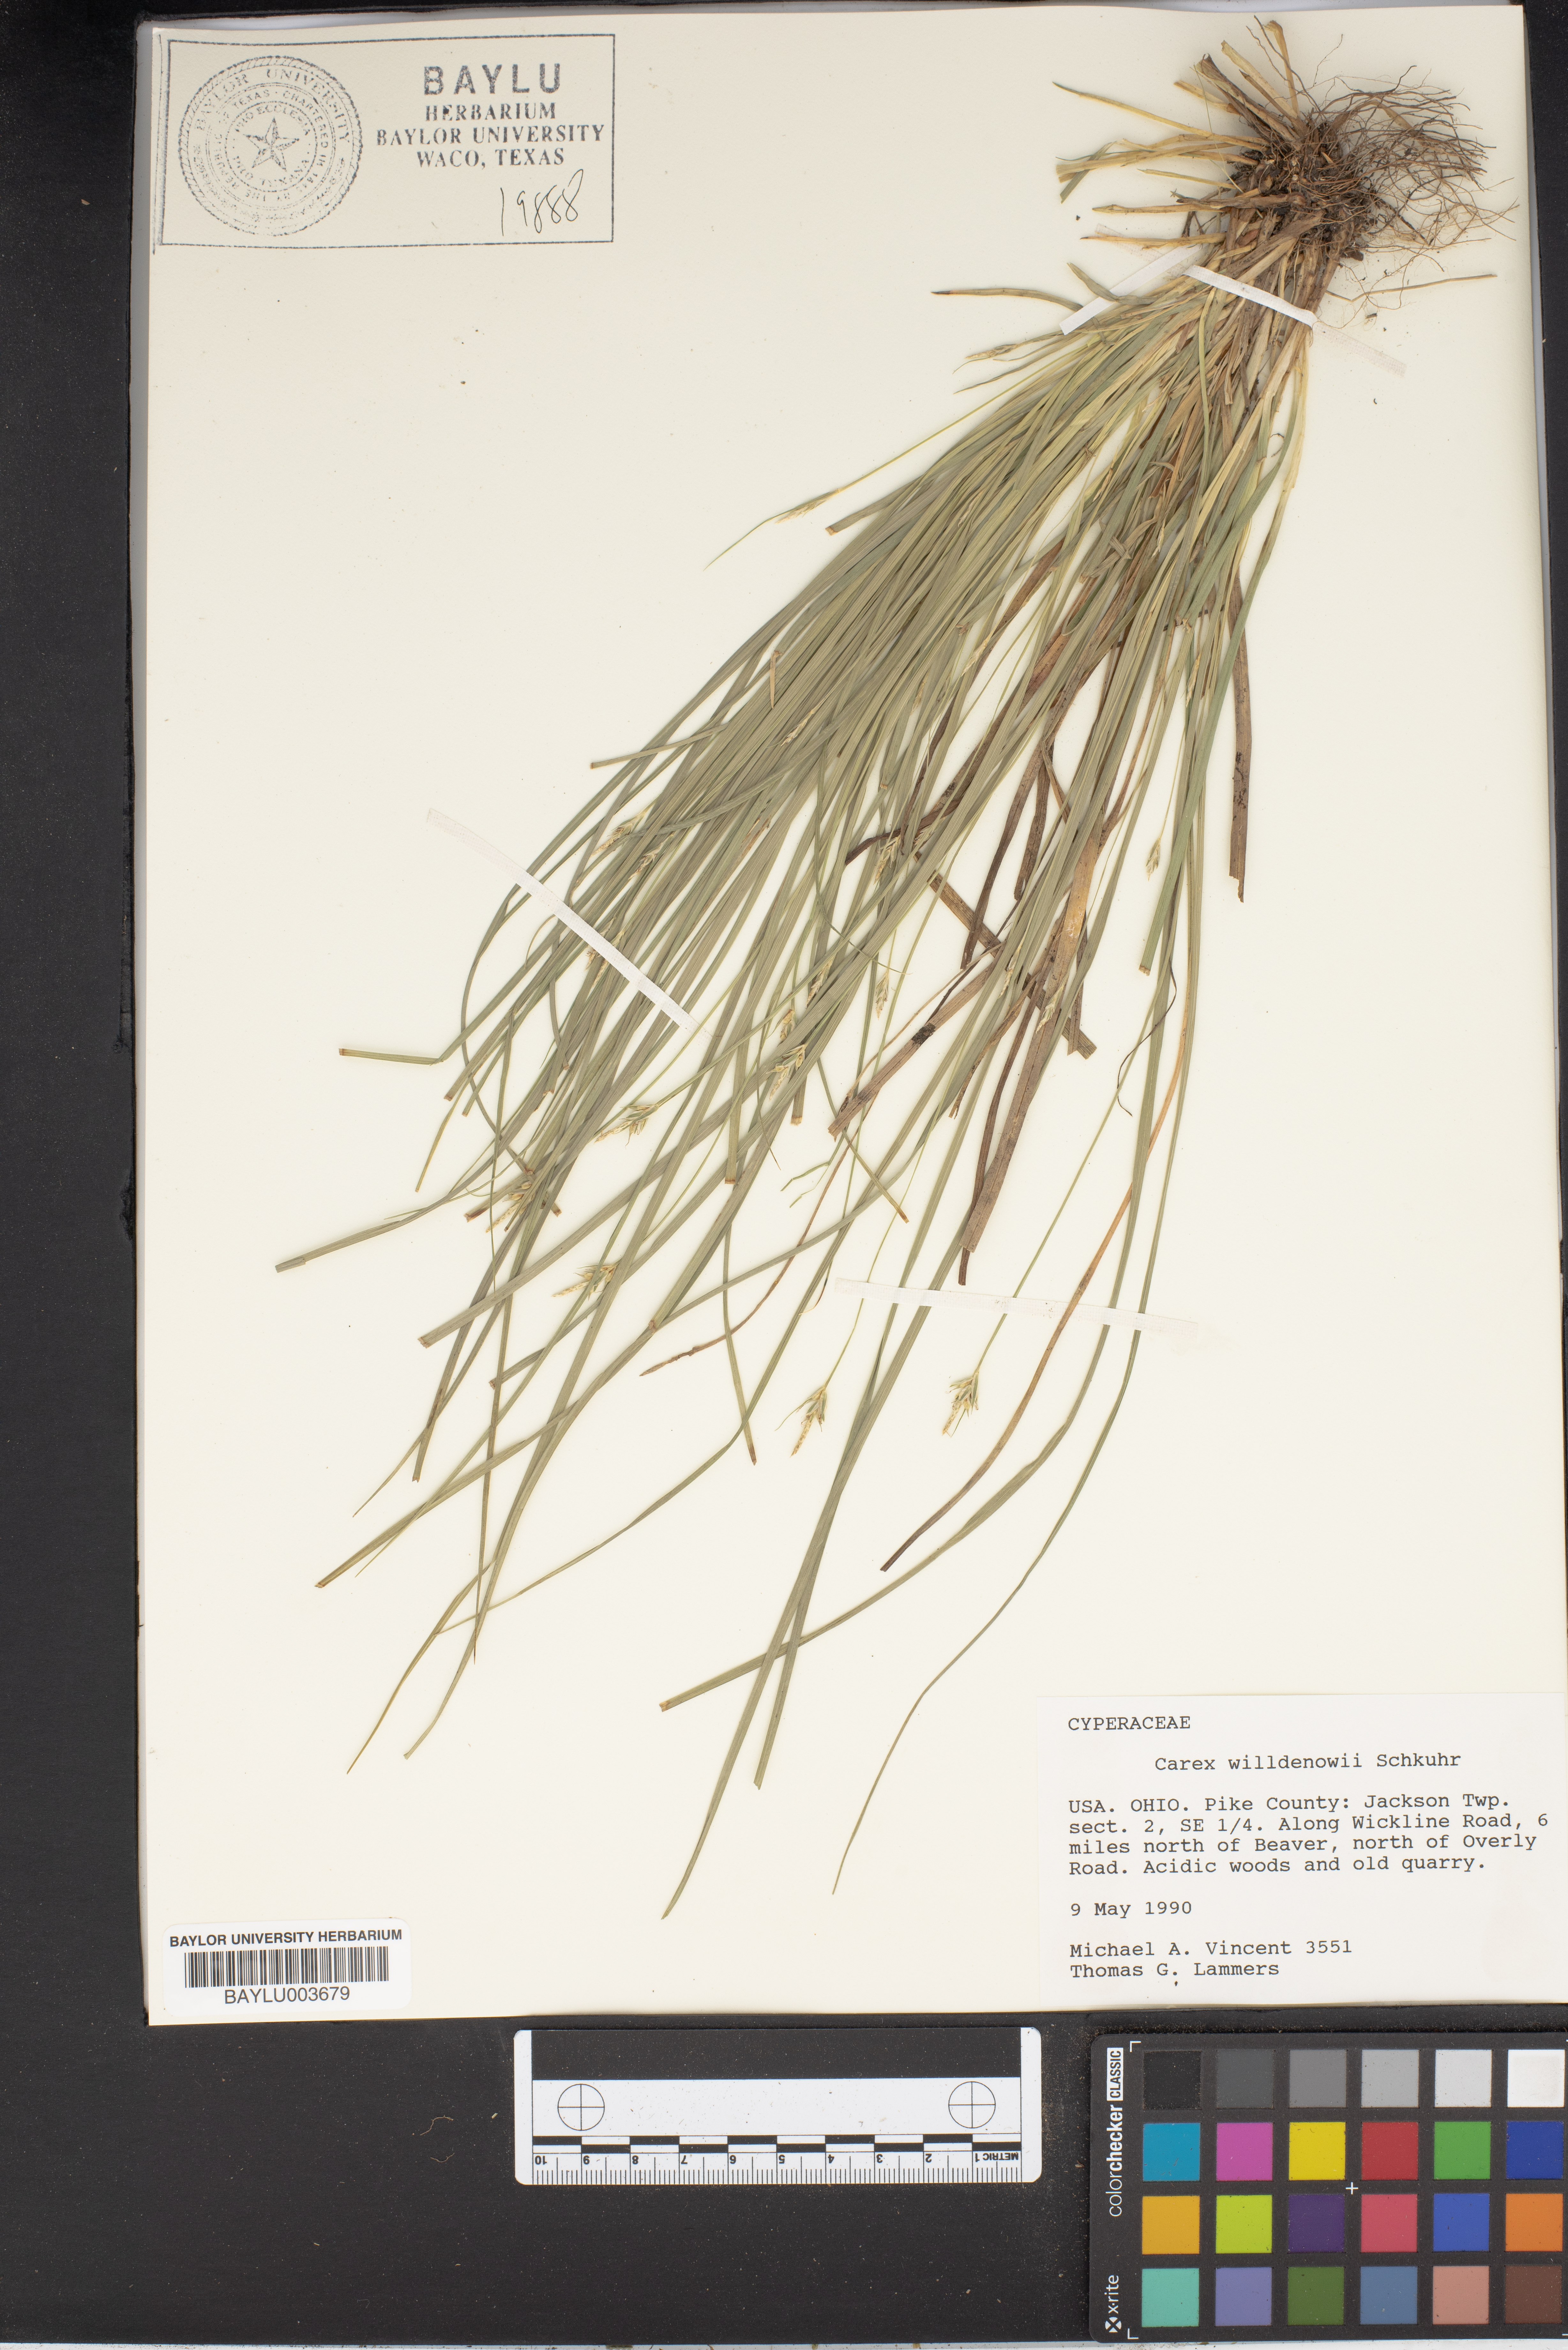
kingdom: Plantae
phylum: Tracheophyta
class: Liliopsida
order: Poales
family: Cyperaceae
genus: Carex
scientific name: Carex willdenowii
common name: Willdenow's sedge
